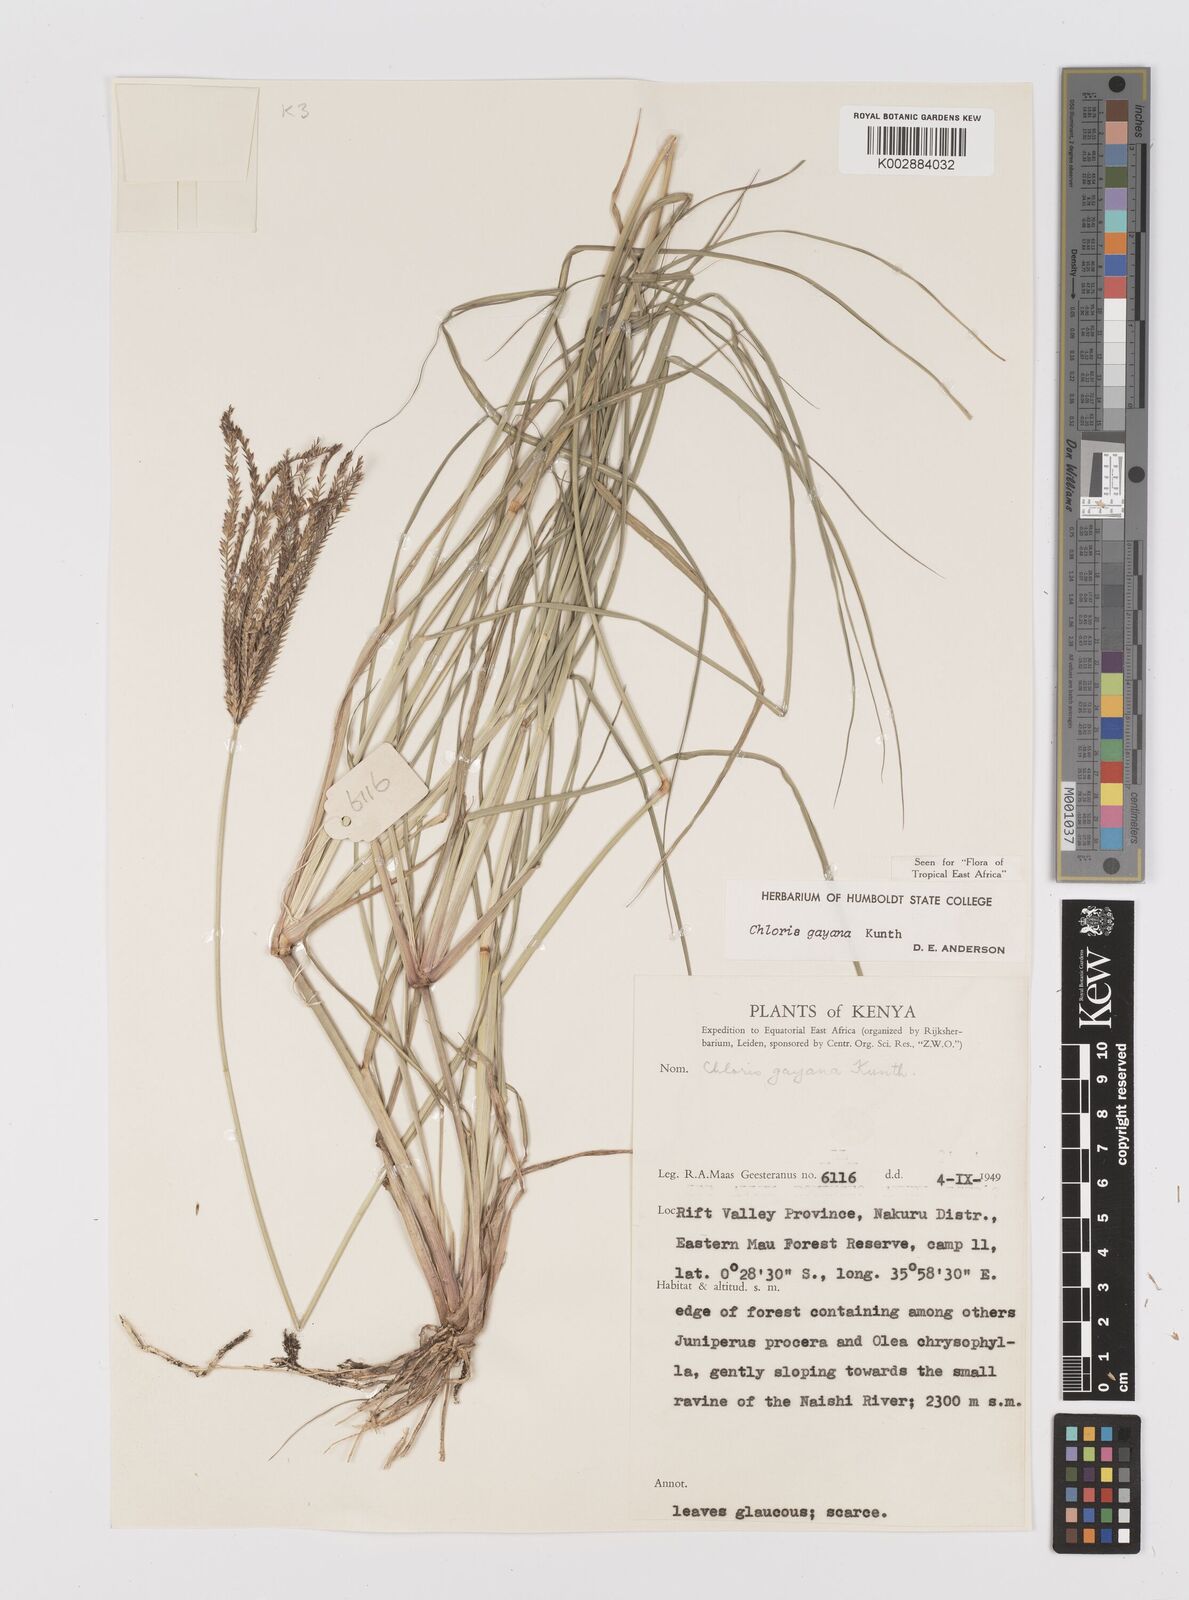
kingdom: Plantae
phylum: Tracheophyta
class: Liliopsida
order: Poales
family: Poaceae
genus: Chloris
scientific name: Chloris gayana
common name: Rhodes grass
